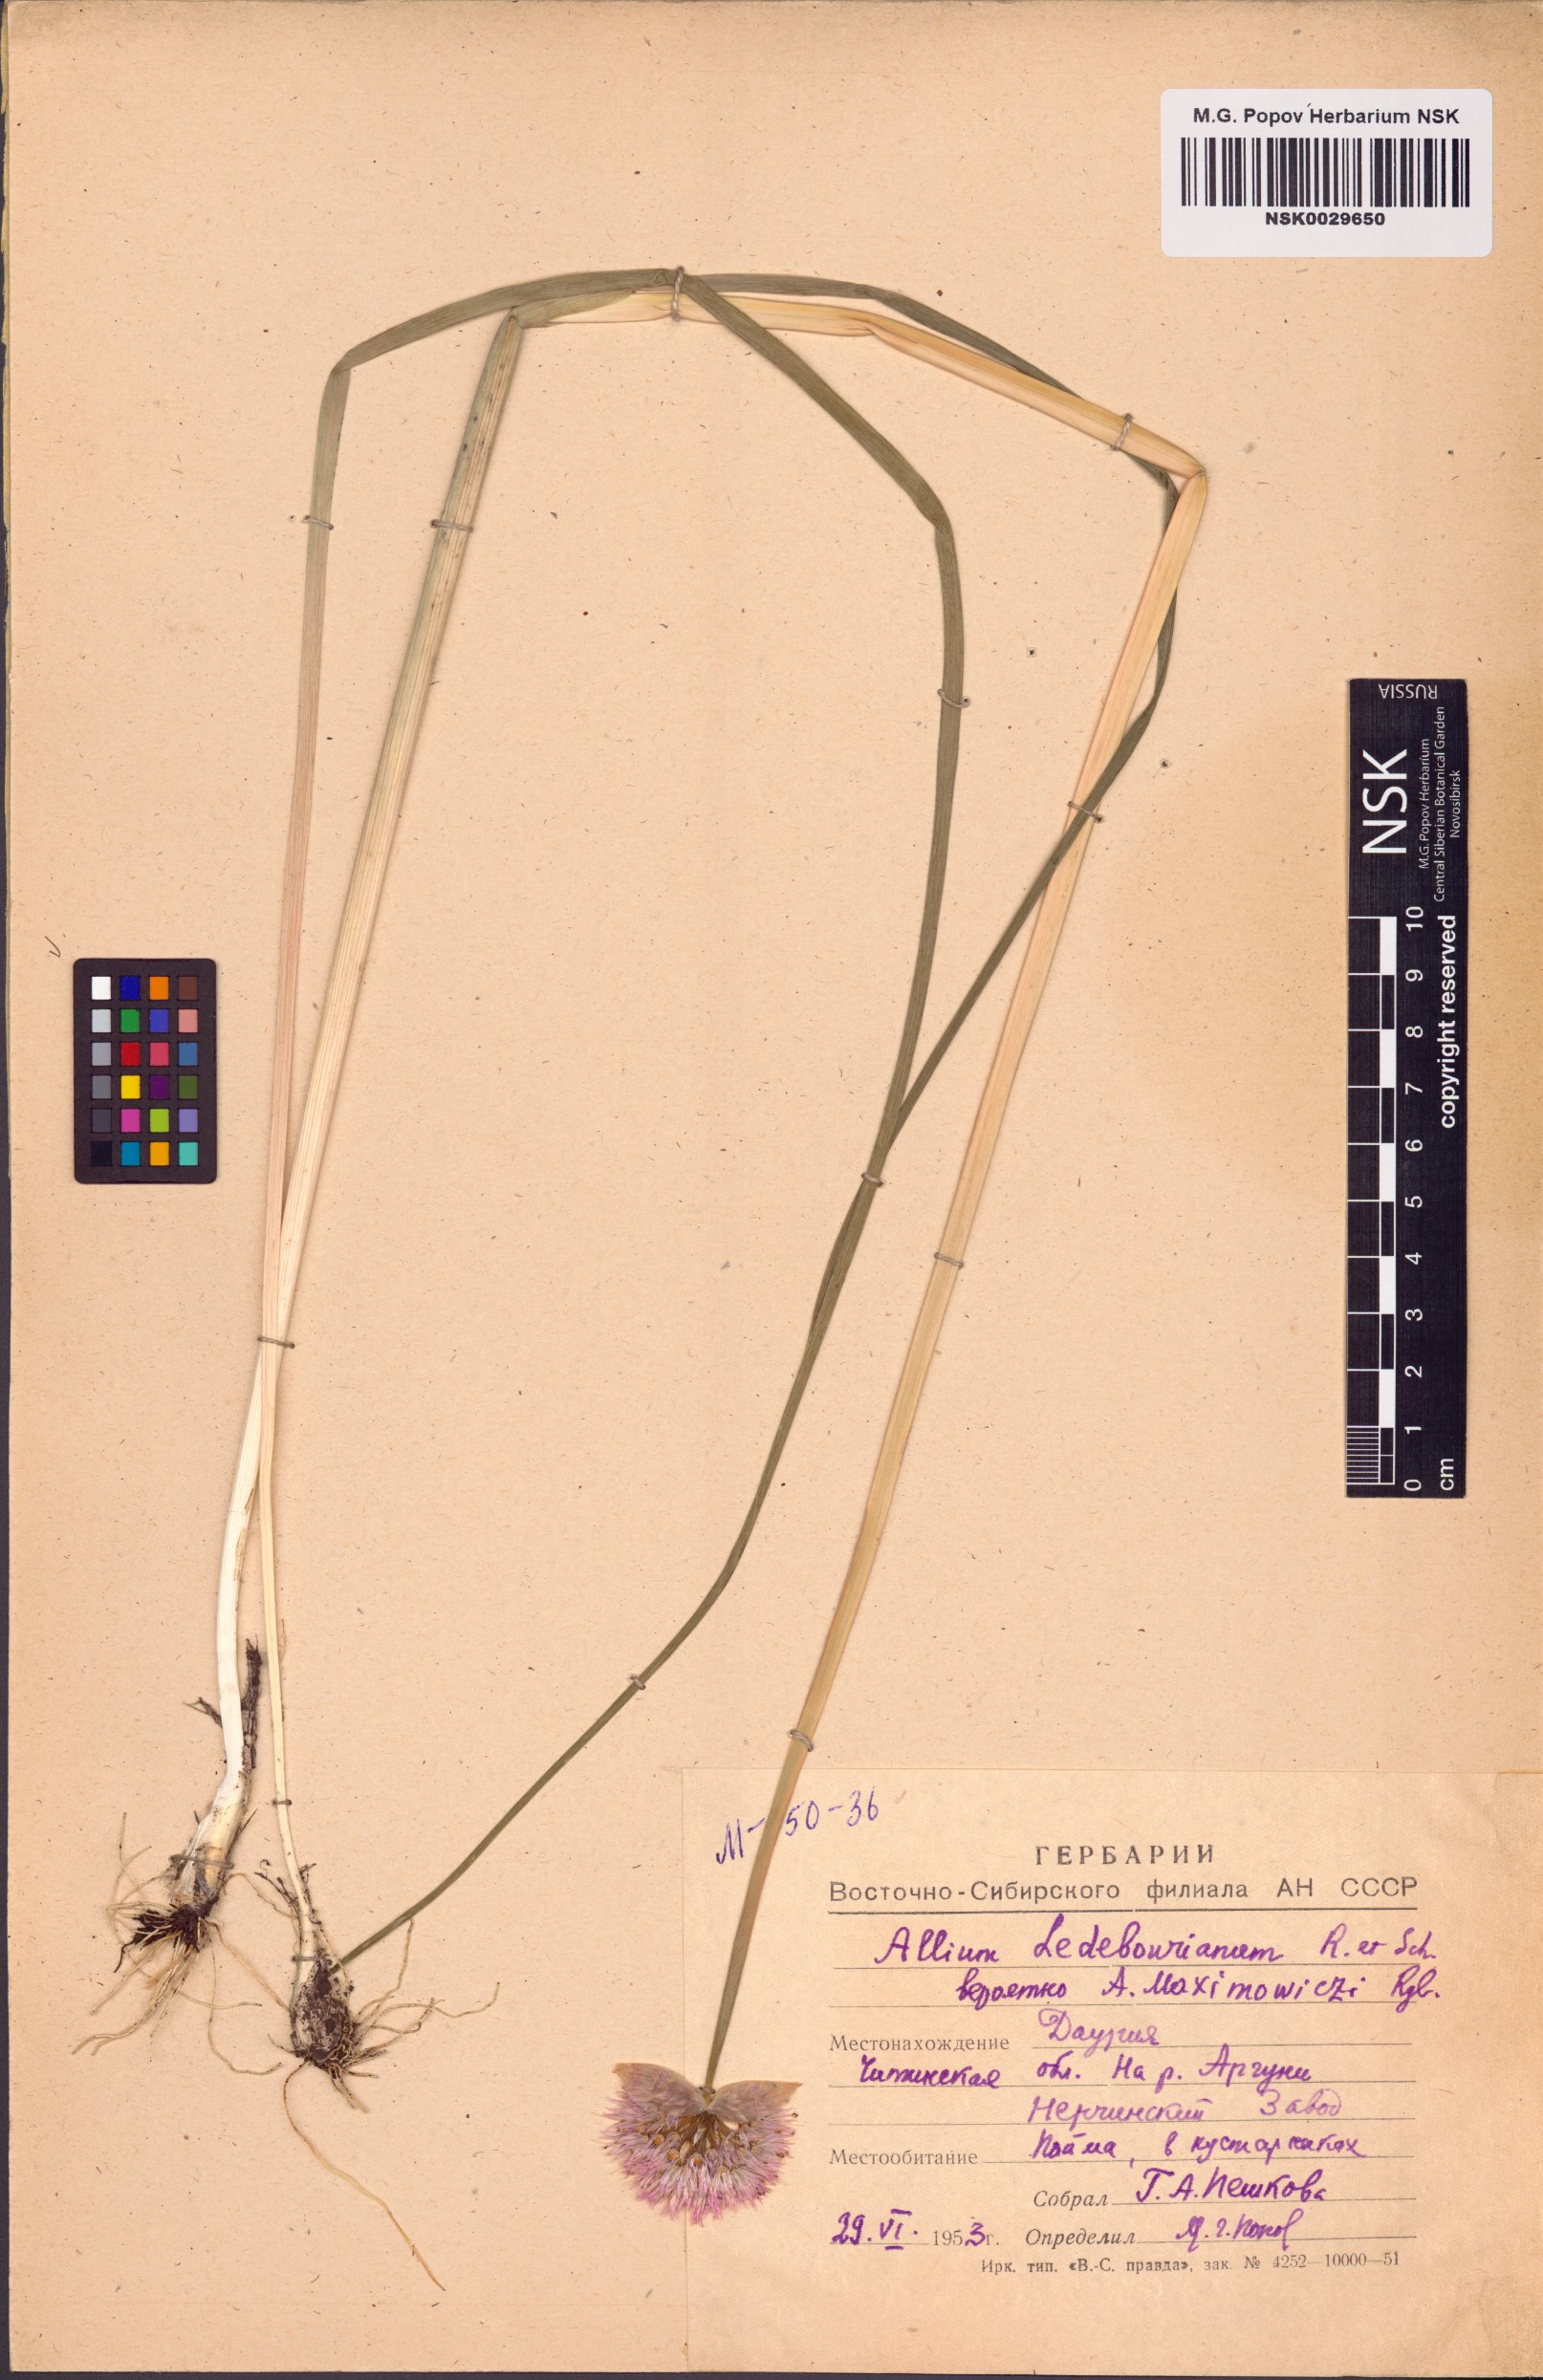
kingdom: Plantae
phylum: Tracheophyta
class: Liliopsida
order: Asparagales
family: Amaryllidaceae
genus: Allium
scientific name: Allium ledebourianum
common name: Ledebour chive
